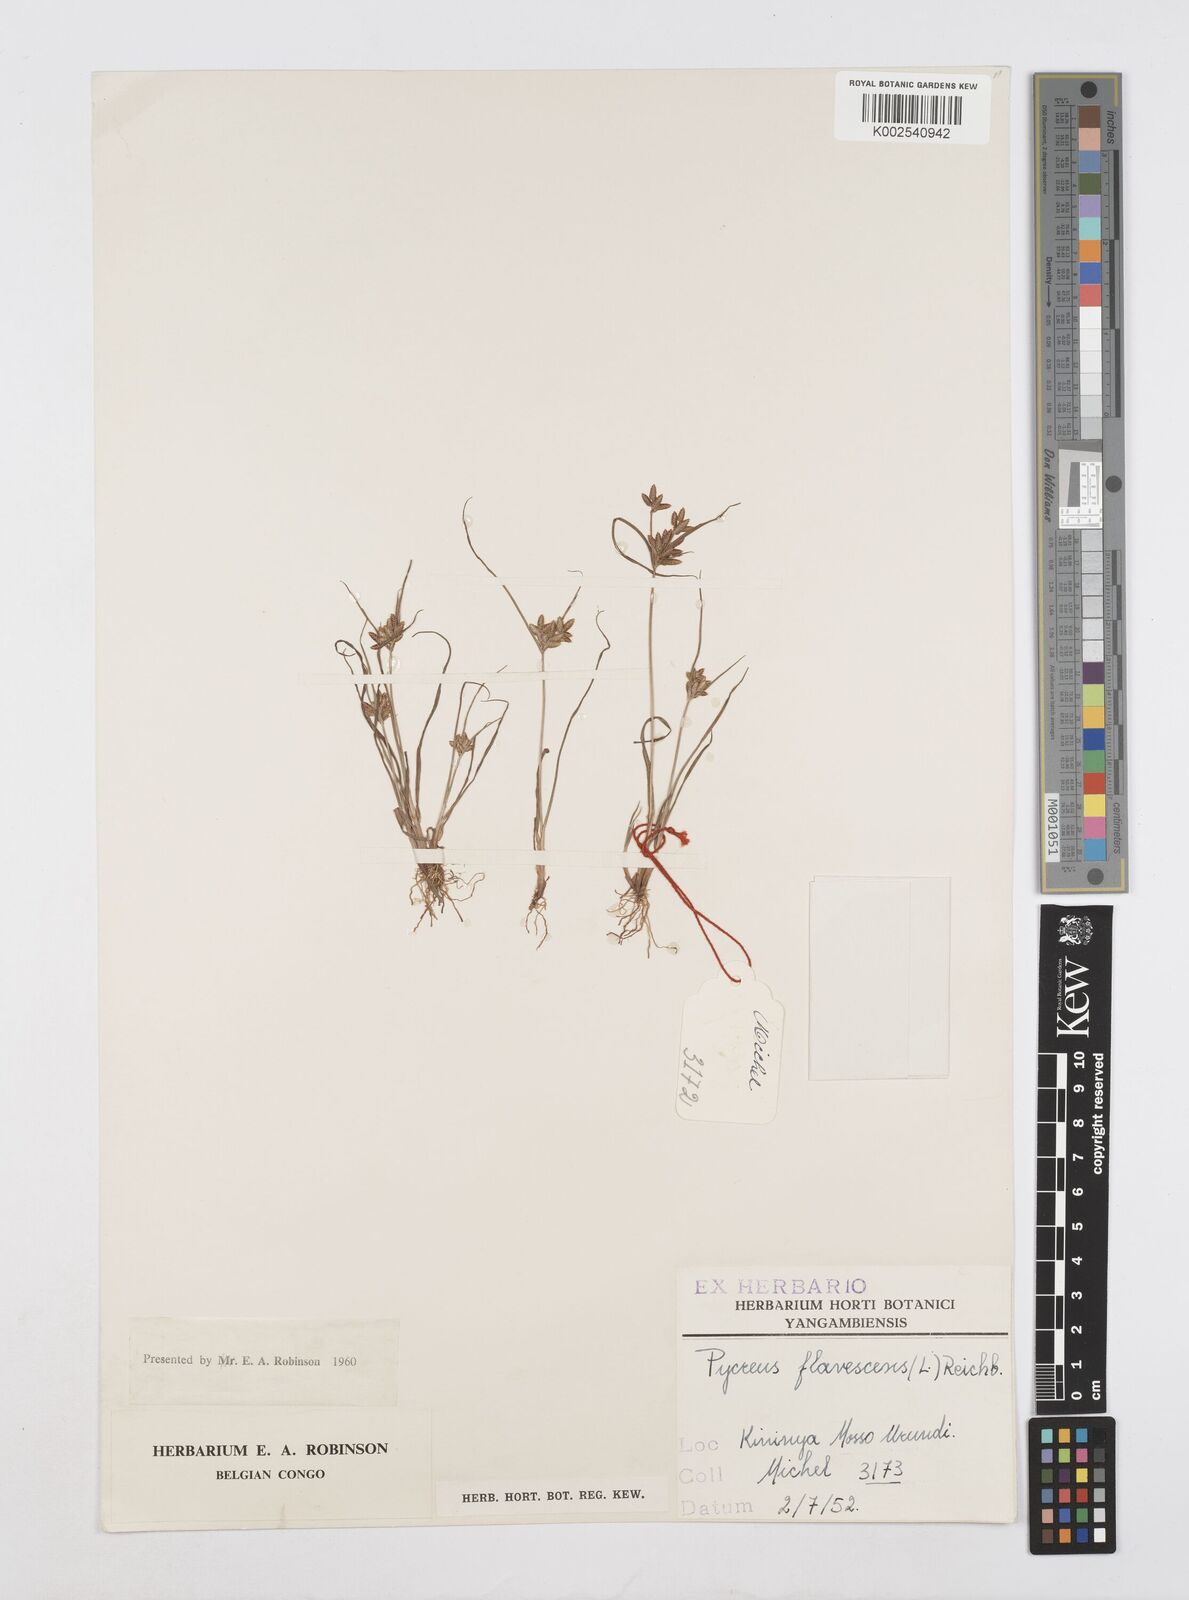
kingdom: Plantae
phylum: Tracheophyta
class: Liliopsida
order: Poales
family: Cyperaceae
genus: Cyperus
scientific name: Cyperus flavescens
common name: Yellow galingale
